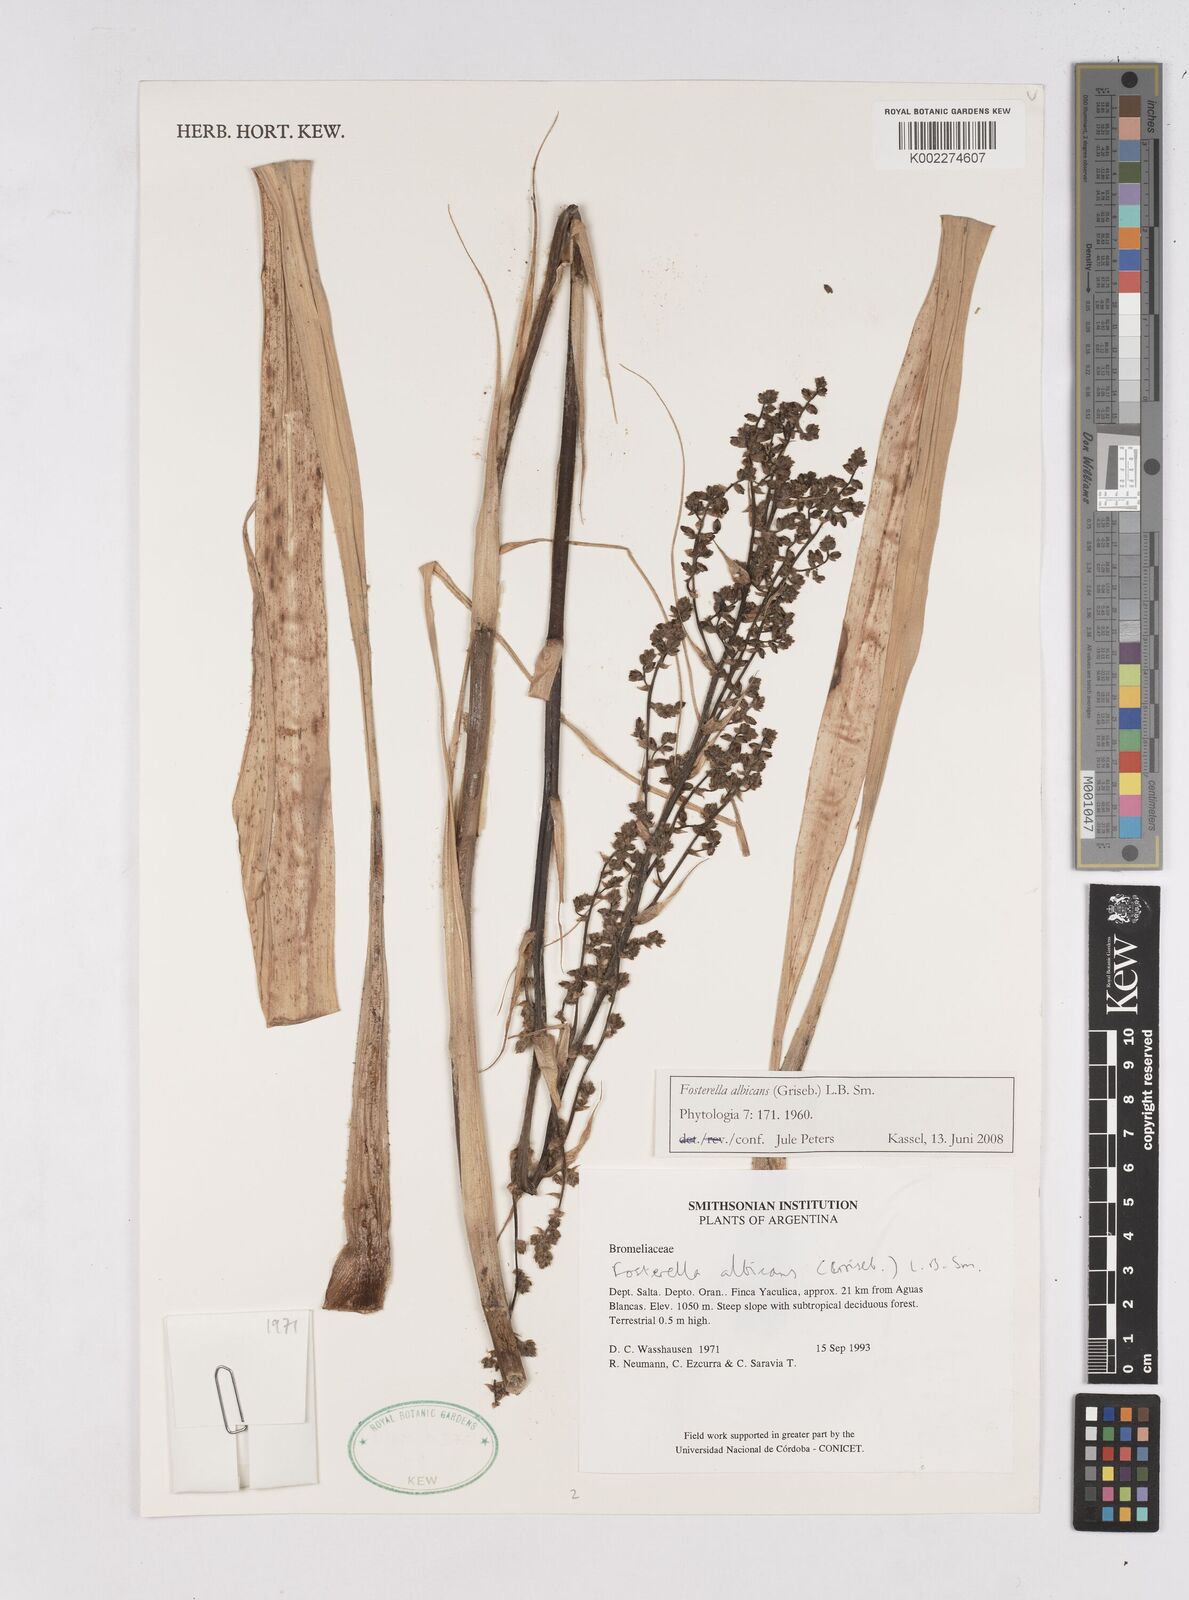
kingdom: Plantae
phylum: Tracheophyta
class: Liliopsida
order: Poales
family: Bromeliaceae
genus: Fosterella
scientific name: Fosterella albicans
